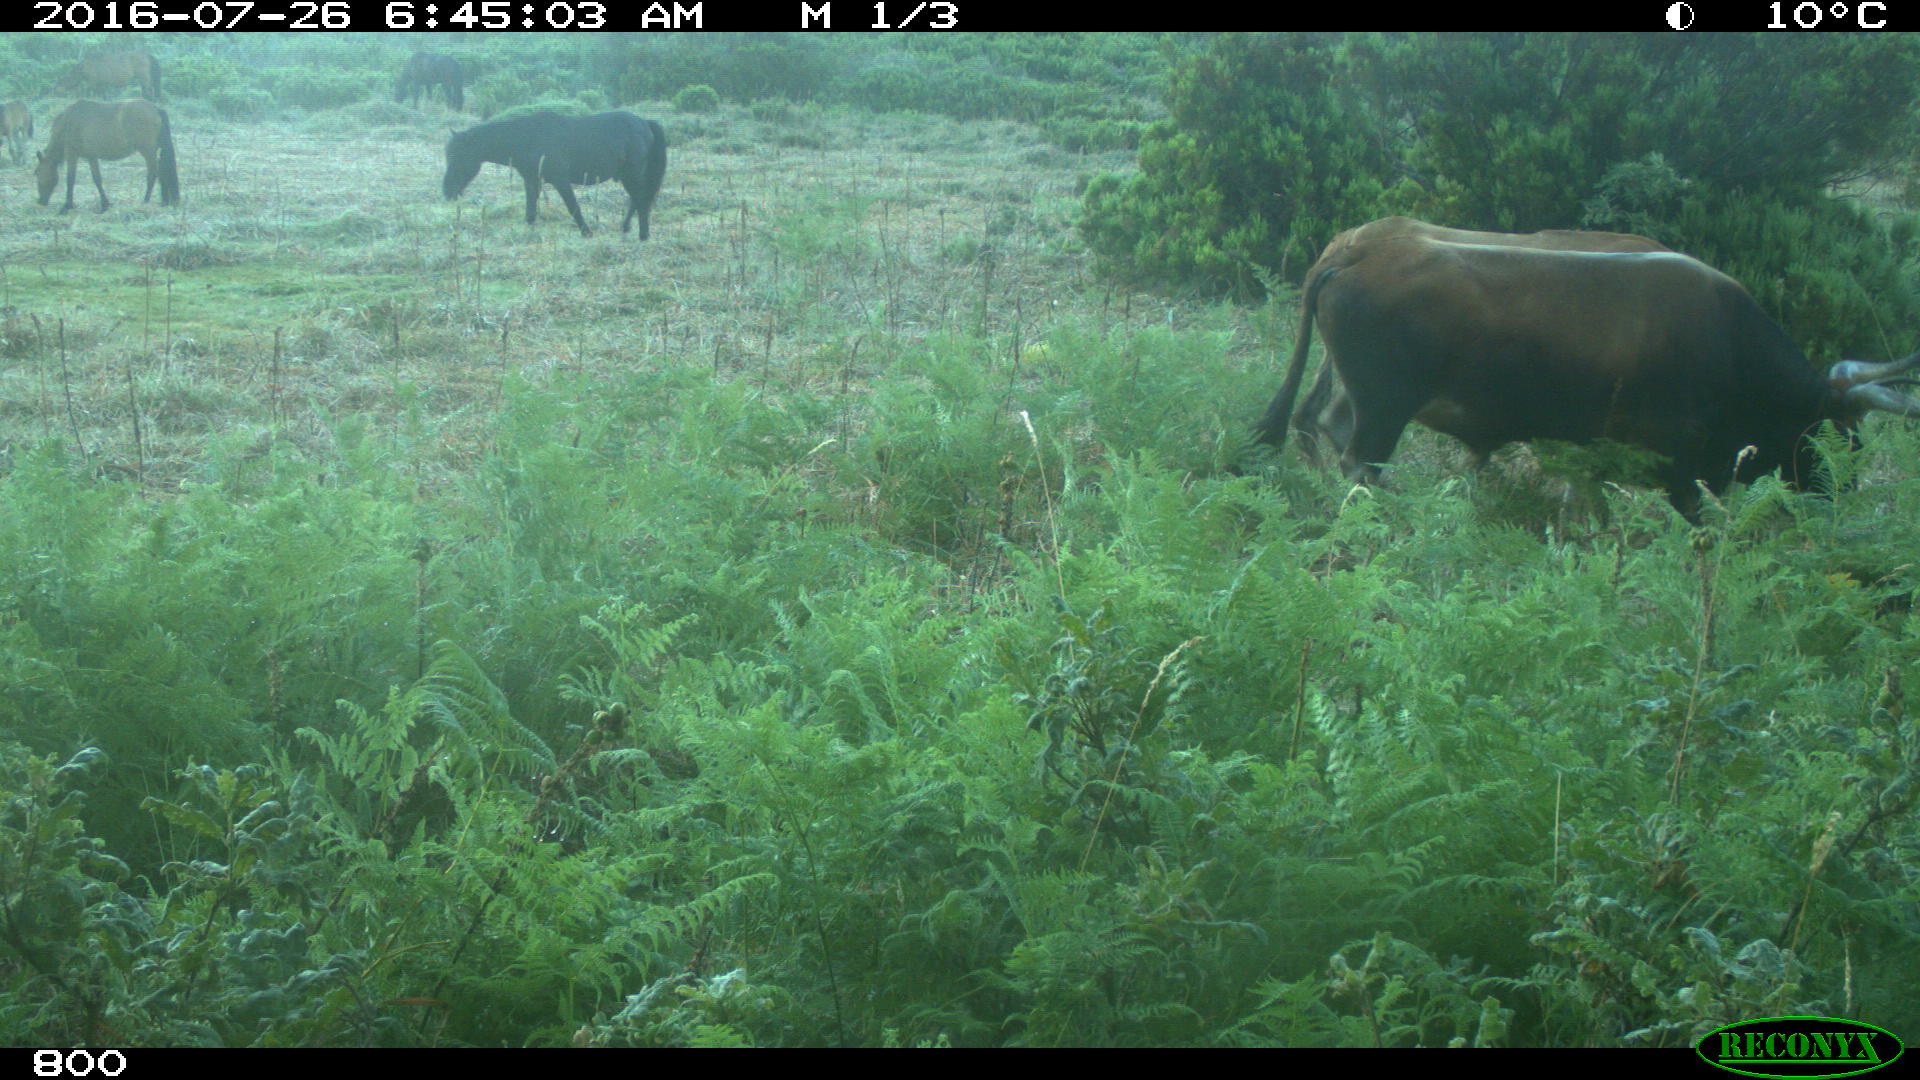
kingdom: Animalia
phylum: Chordata
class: Mammalia
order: Artiodactyla
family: Bovidae
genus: Bos
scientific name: Bos taurus
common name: Domesticated cattle
